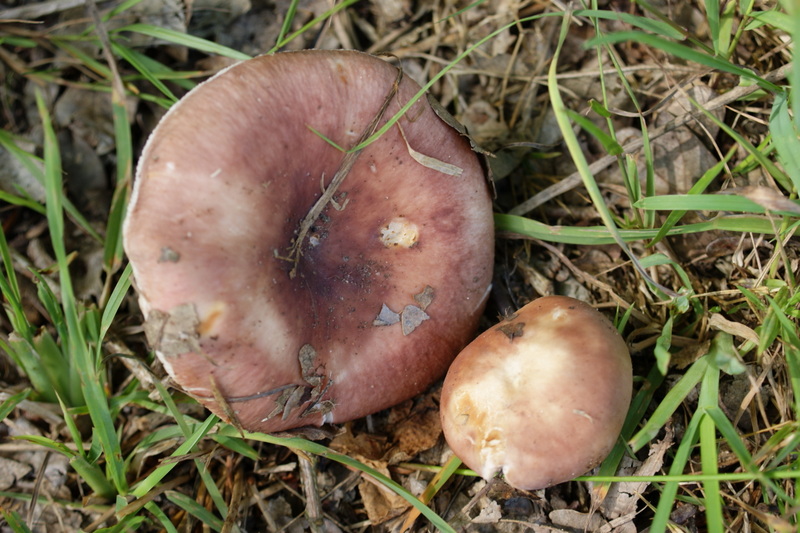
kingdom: Fungi
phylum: Basidiomycota
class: Agaricomycetes
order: Russulales
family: Russulaceae
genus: Russula
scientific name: Russula vesca
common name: spiselig skørhat
